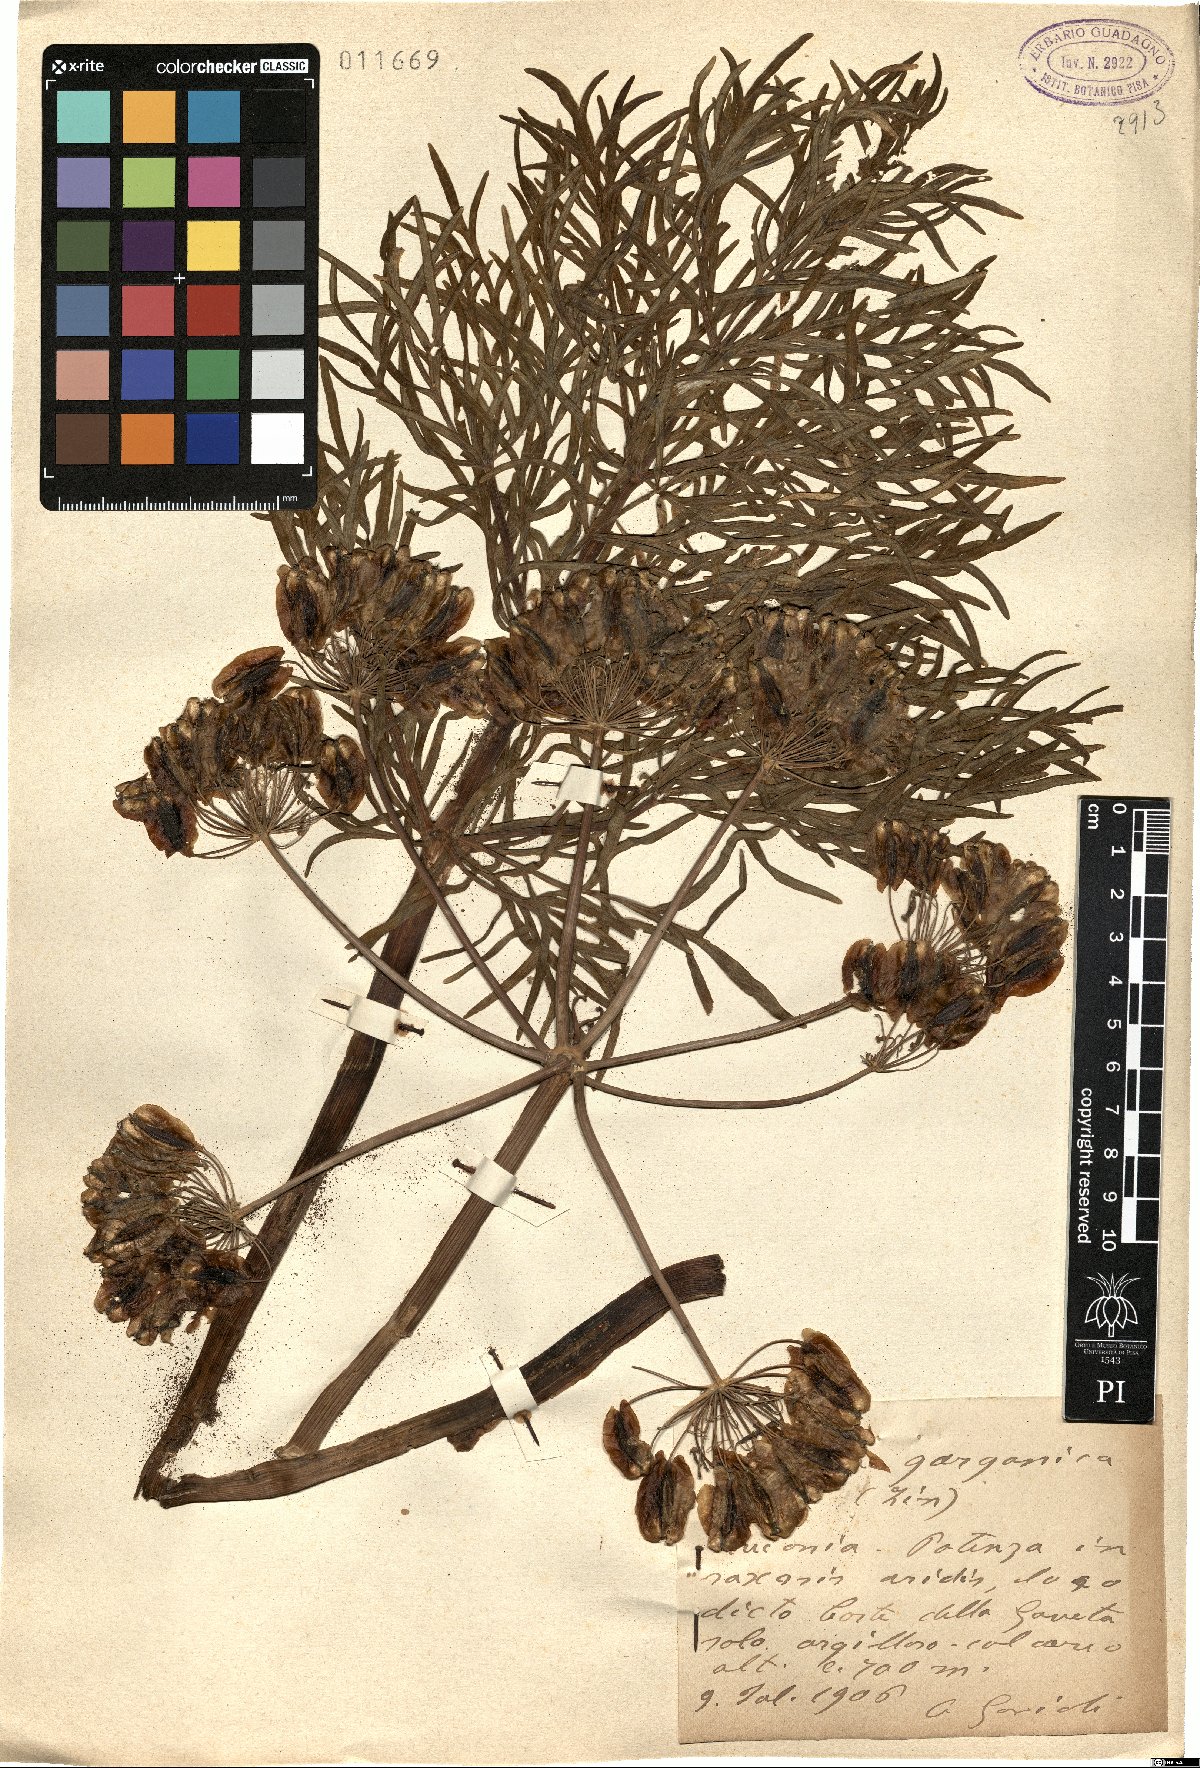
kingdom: Plantae
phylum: Tracheophyta
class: Magnoliopsida
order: Apiales
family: Apiaceae
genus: Thapsia
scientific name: Thapsia garganica
